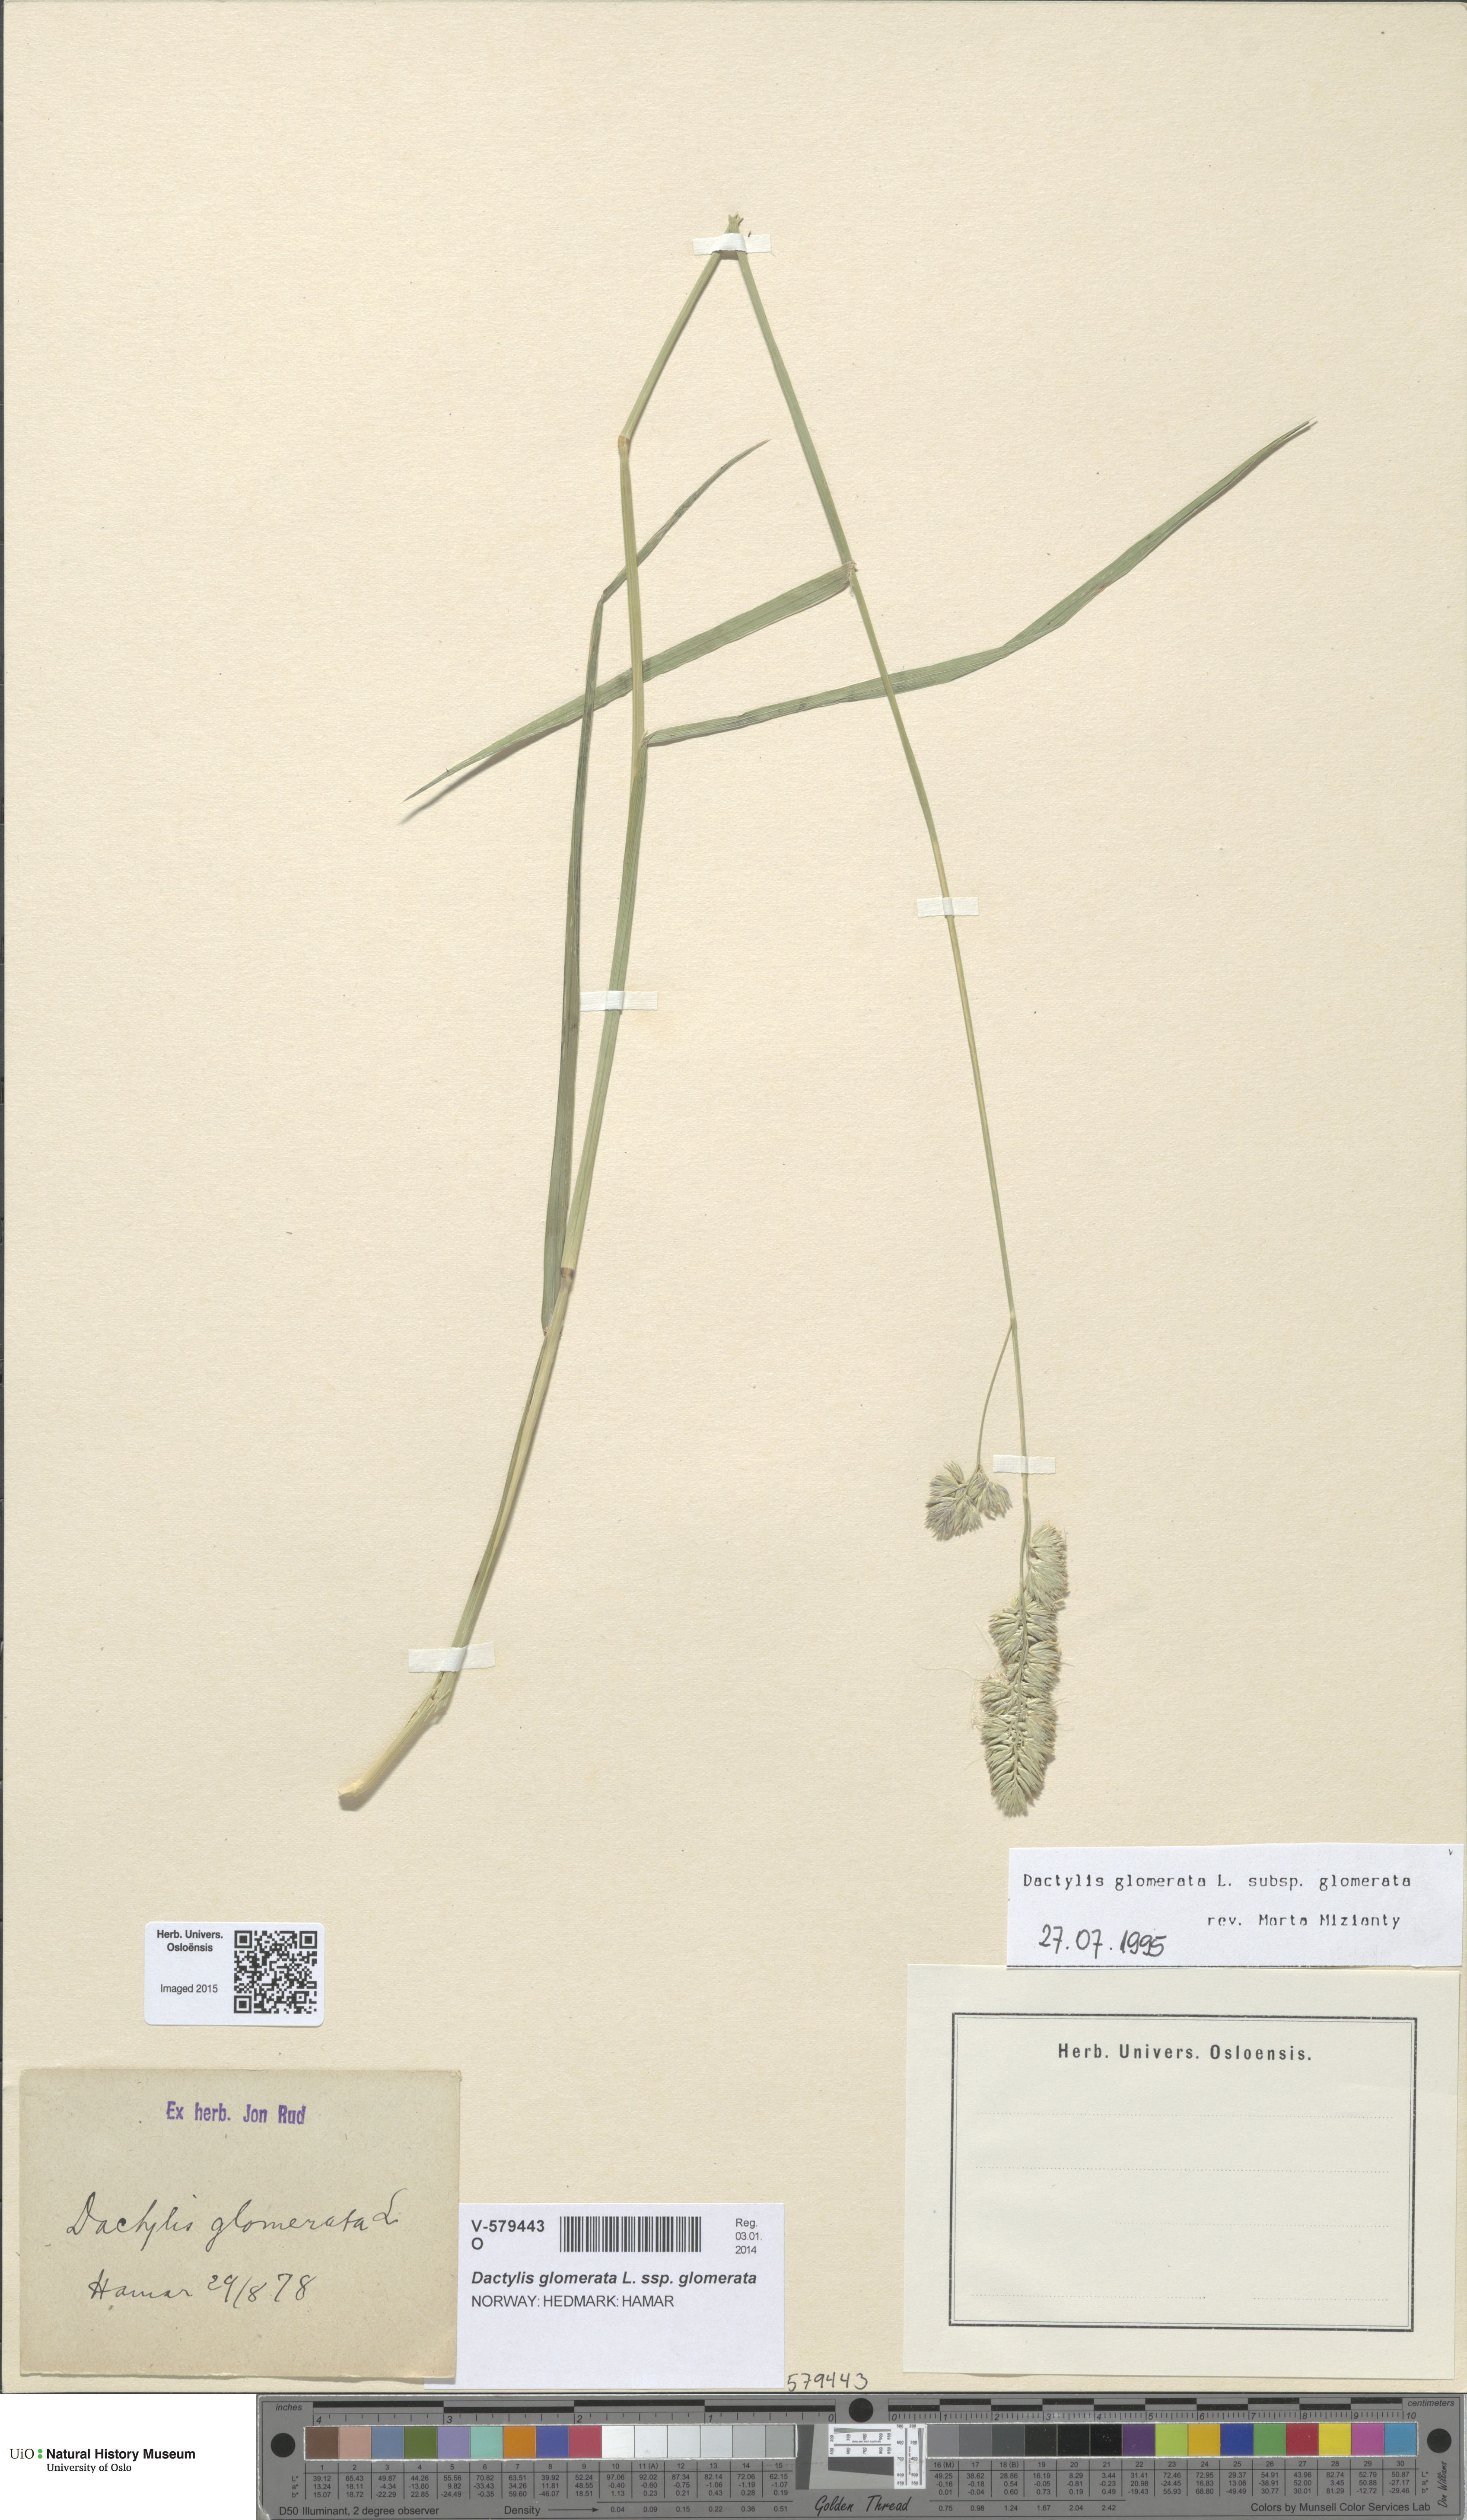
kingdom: Plantae
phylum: Tracheophyta
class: Liliopsida
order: Poales
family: Poaceae
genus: Dactylis
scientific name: Dactylis glomerata
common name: Orchardgrass
